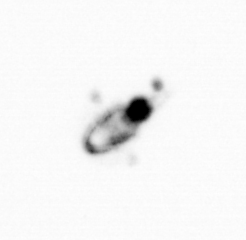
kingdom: Animalia
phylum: Arthropoda
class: Copepoda
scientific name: Copepoda
